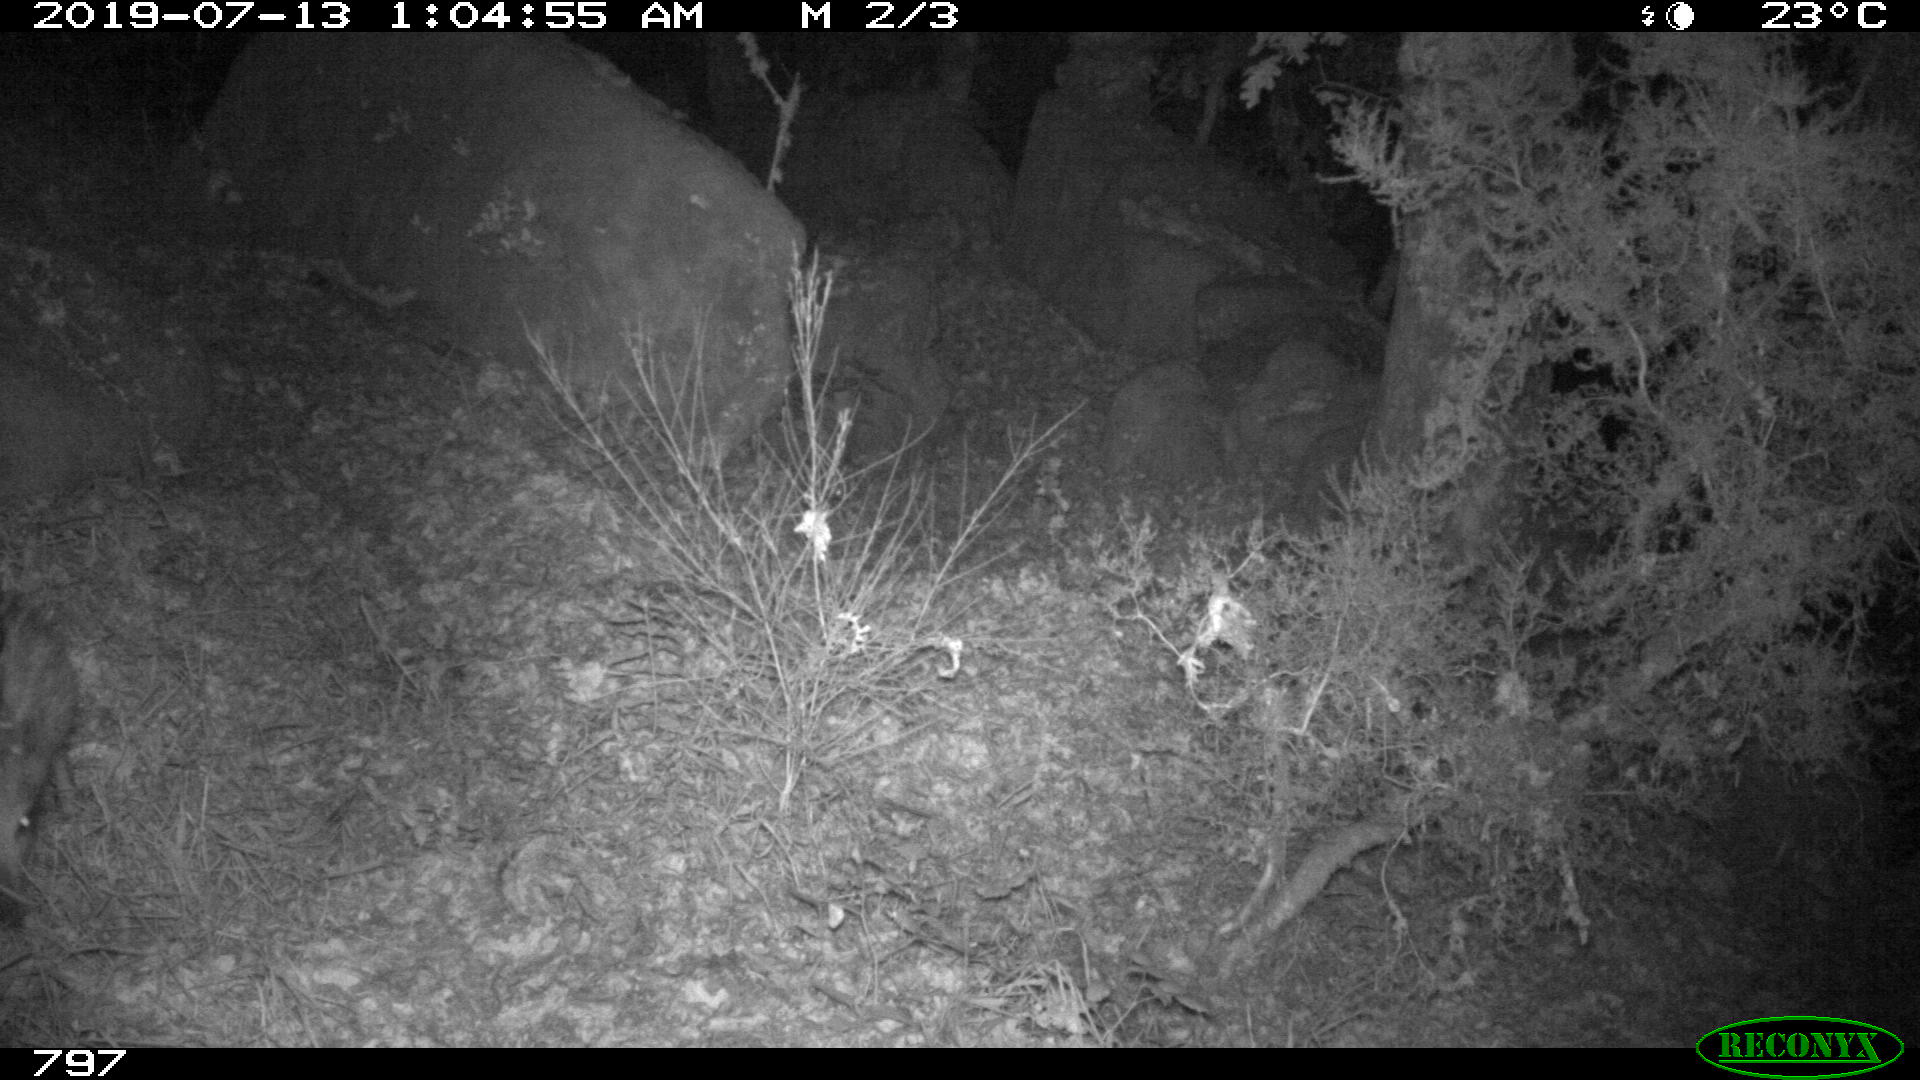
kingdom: Animalia
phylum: Chordata
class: Mammalia
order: Artiodactyla
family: Suidae
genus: Sus
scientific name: Sus scrofa
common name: Wild boar
